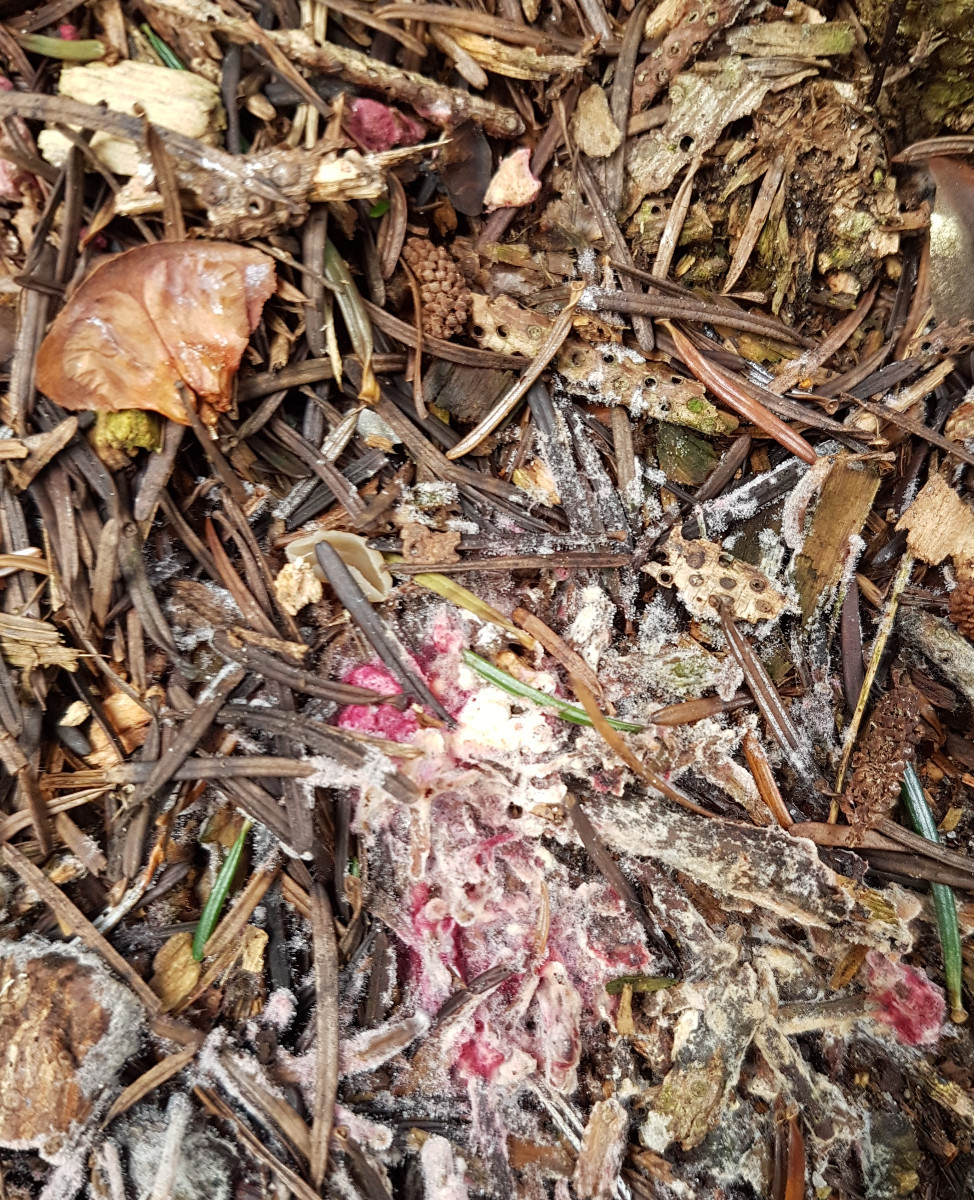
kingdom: Fungi
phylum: Ascomycota
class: Sordariomycetes
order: Hypocreales
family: Hypocreaceae
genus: Hypomyces
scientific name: Hypomyces rosellus
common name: rosa snylteskorpe
